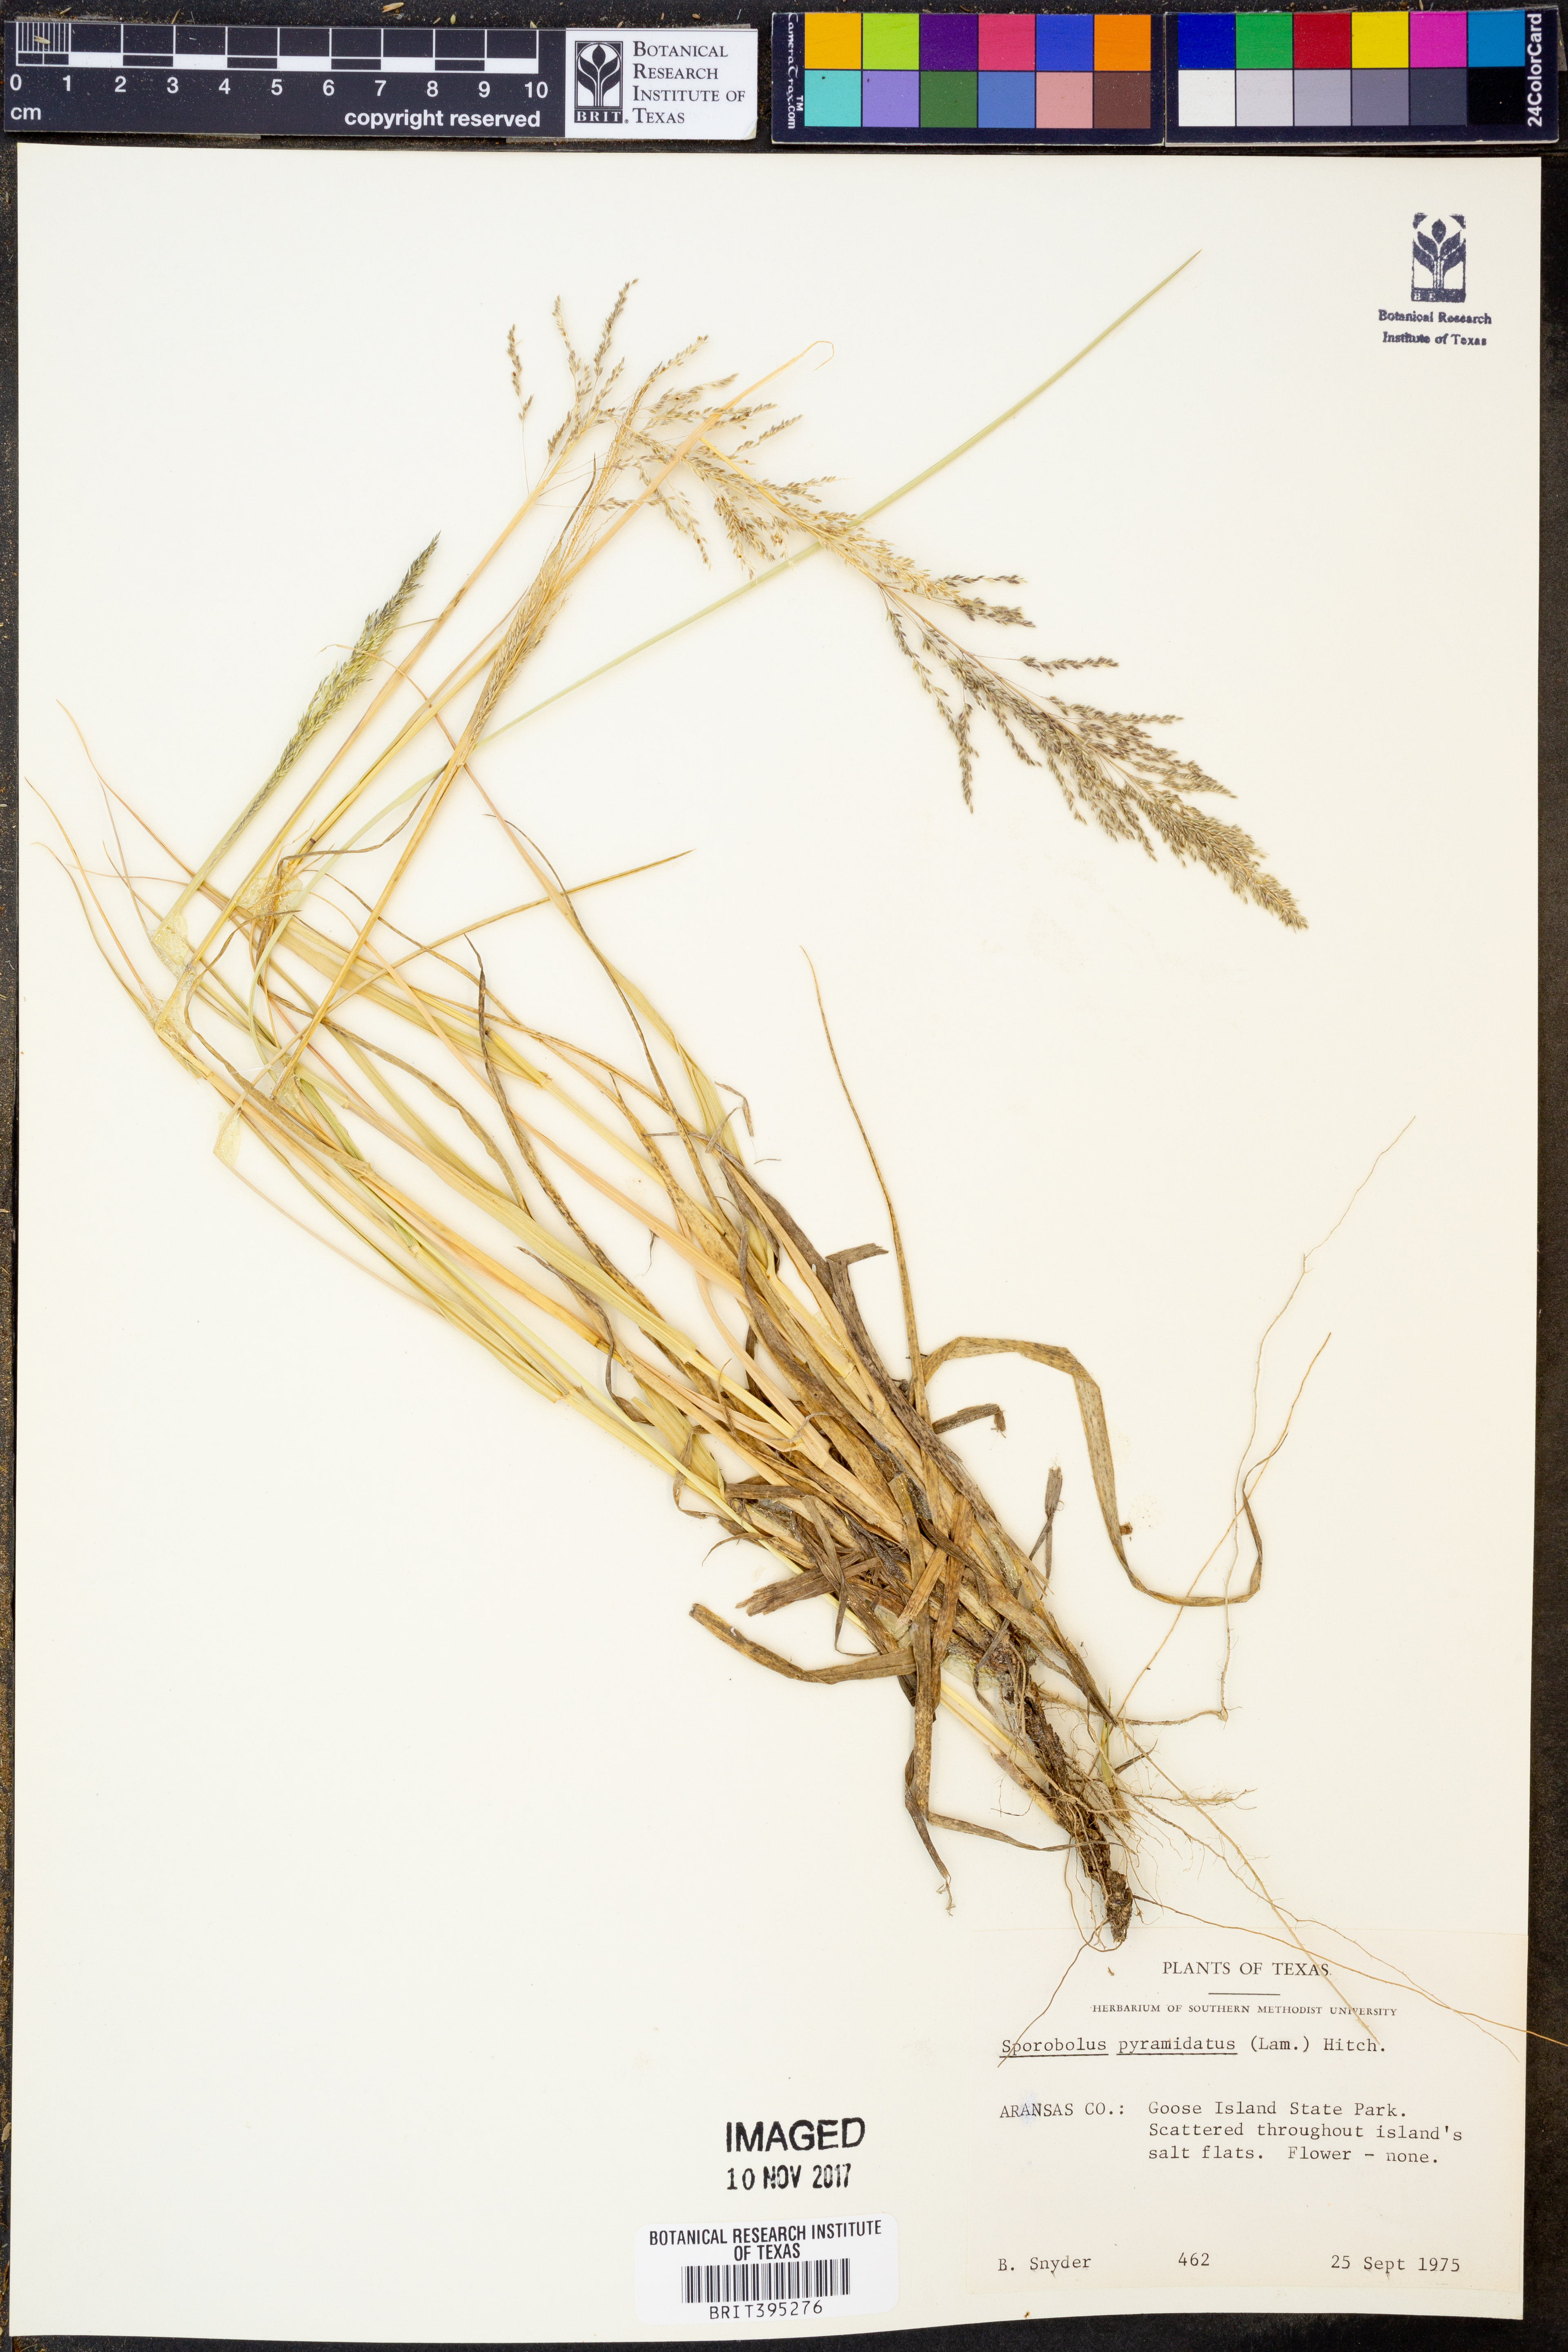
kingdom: Plantae
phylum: Tracheophyta
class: Liliopsida
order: Poales
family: Poaceae
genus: Sporobolus
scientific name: Sporobolus pyramidatus
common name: Whorled dropseed
